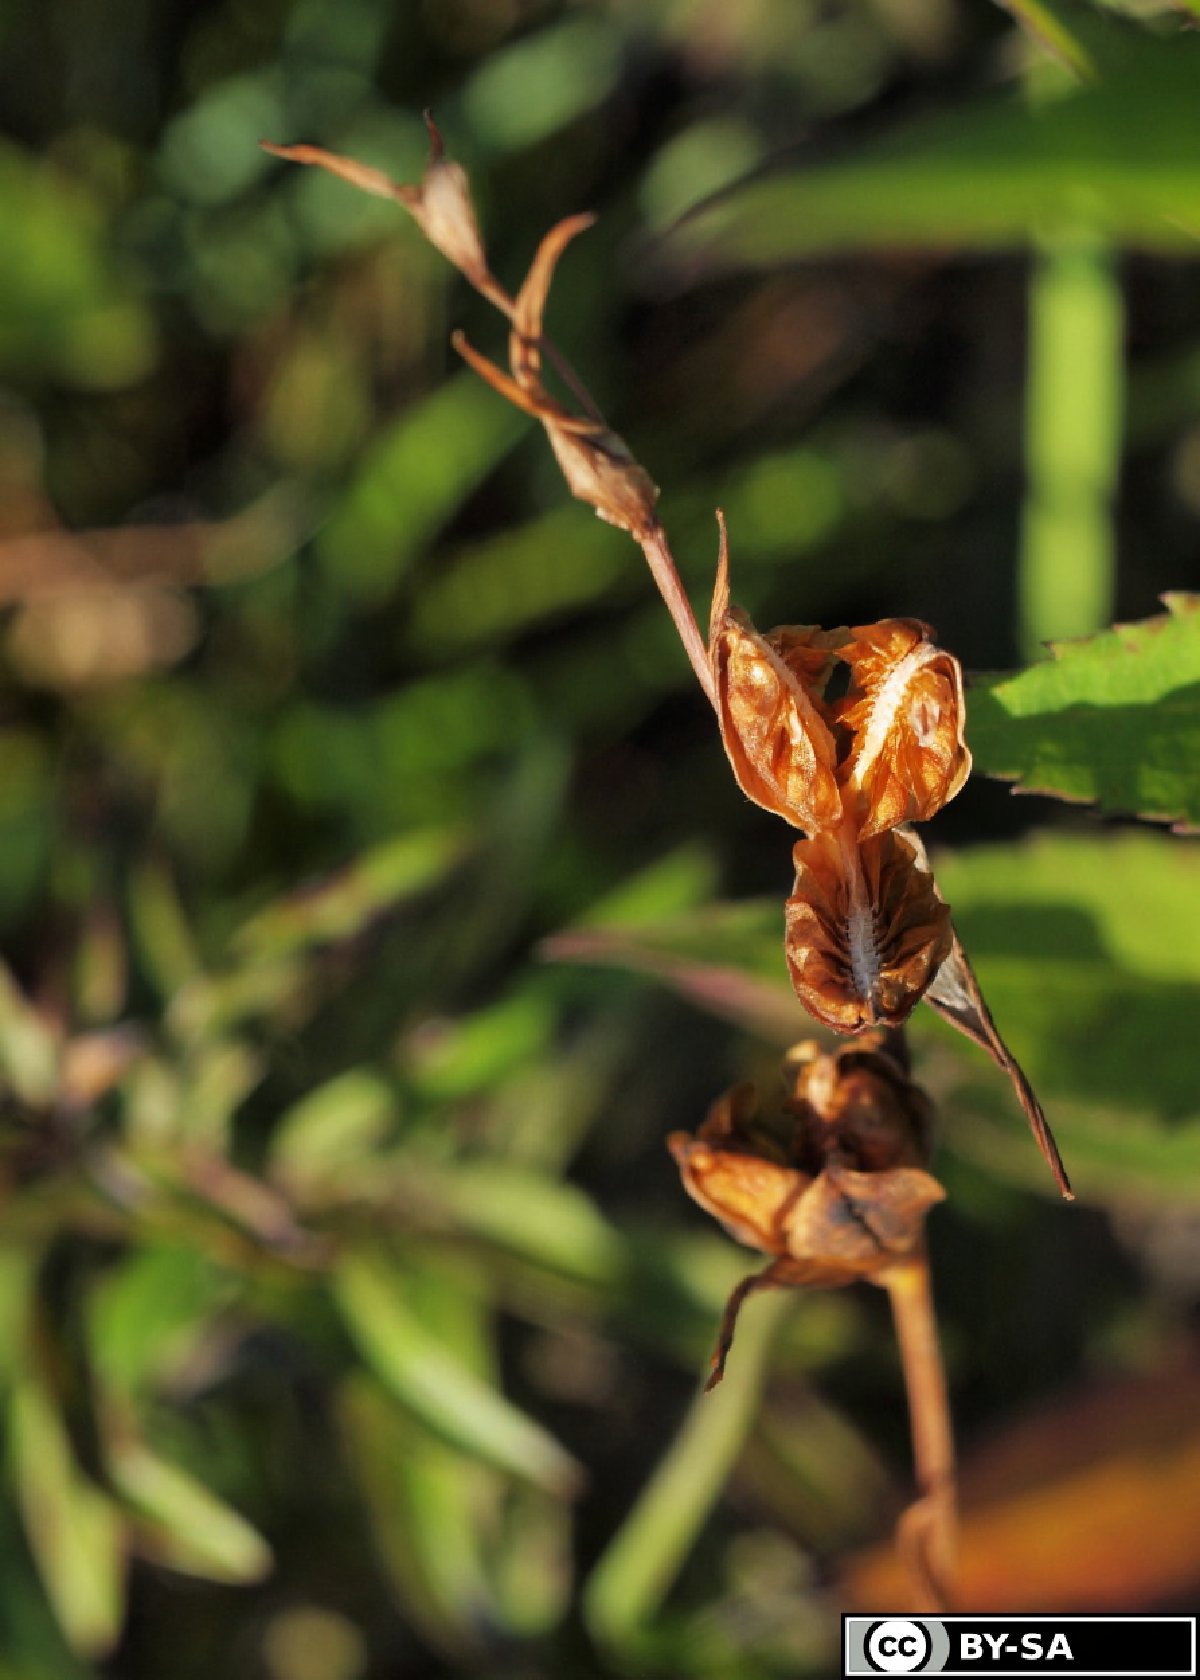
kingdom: Plantae
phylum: Tracheophyta
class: Liliopsida
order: Asparagales
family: Iridaceae
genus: Gladiolus
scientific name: Gladiolus palustris
